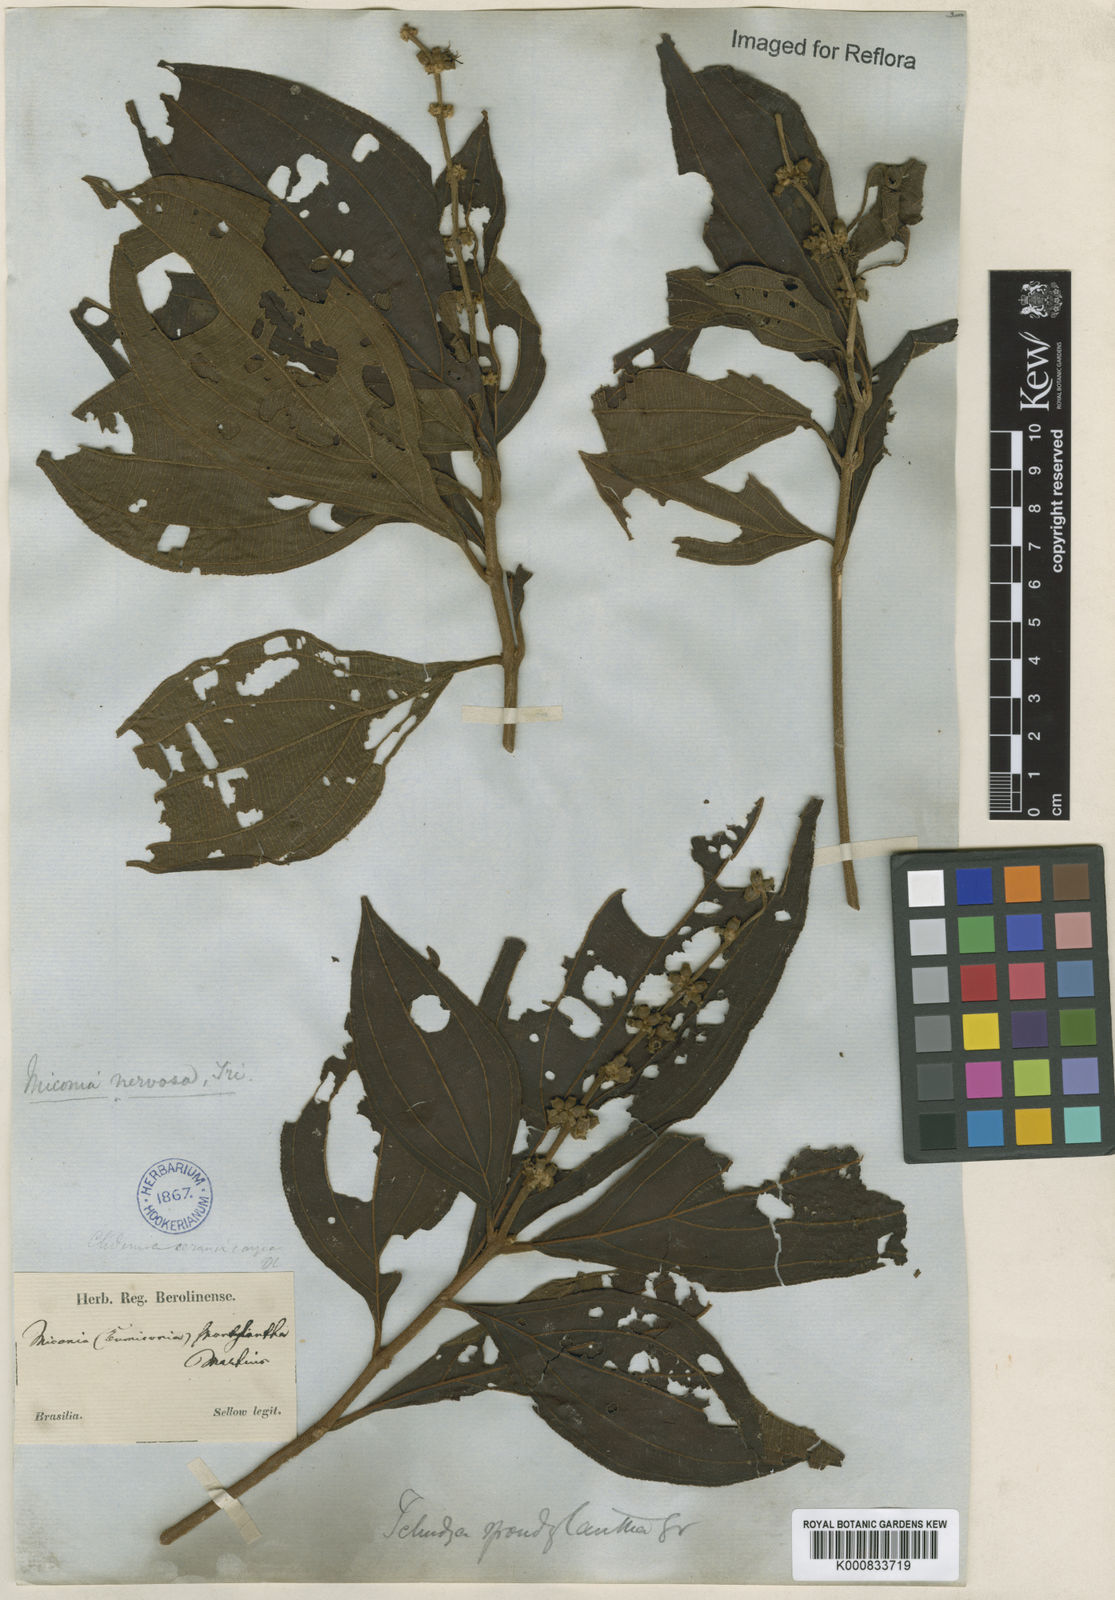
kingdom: Plantae
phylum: Tracheophyta
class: Magnoliopsida
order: Myrtales
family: Melastomataceae
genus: Miconia
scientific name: Miconia nervosa
